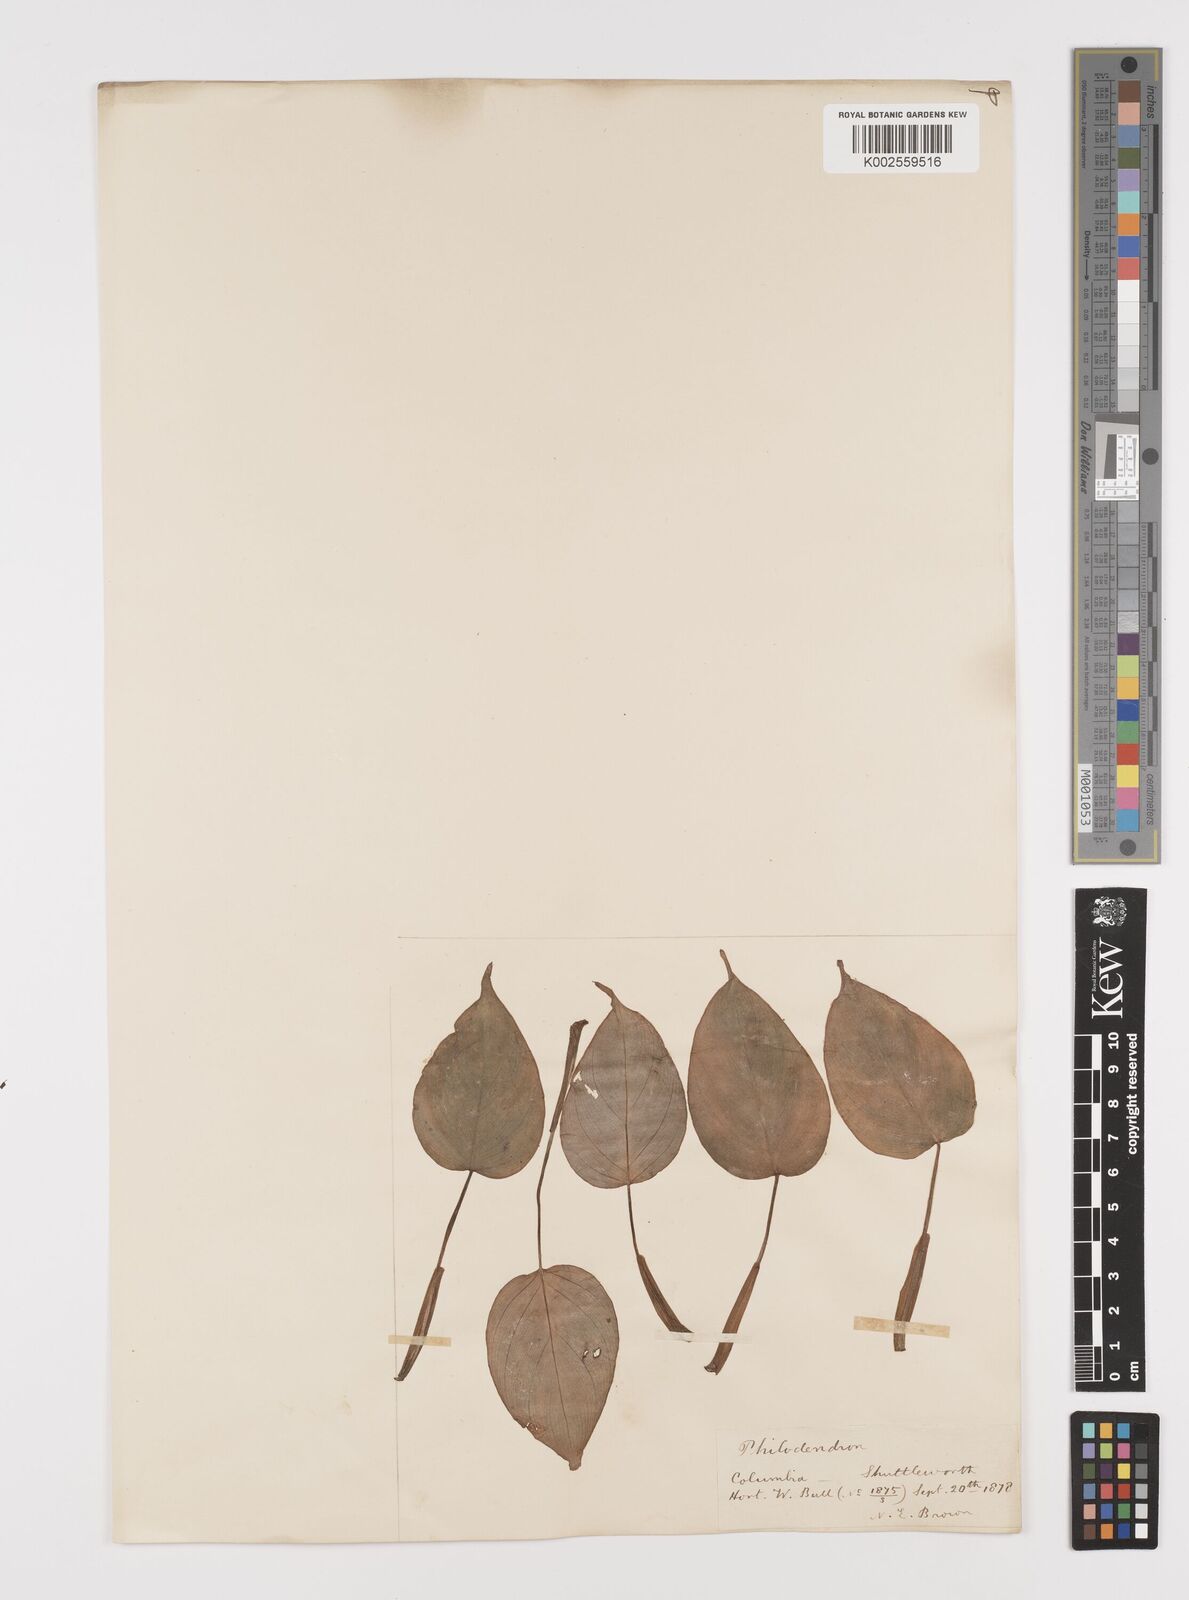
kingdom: Plantae
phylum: Tracheophyta
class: Liliopsida
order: Alismatales
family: Araceae
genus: Philodendron
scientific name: Philodendron
